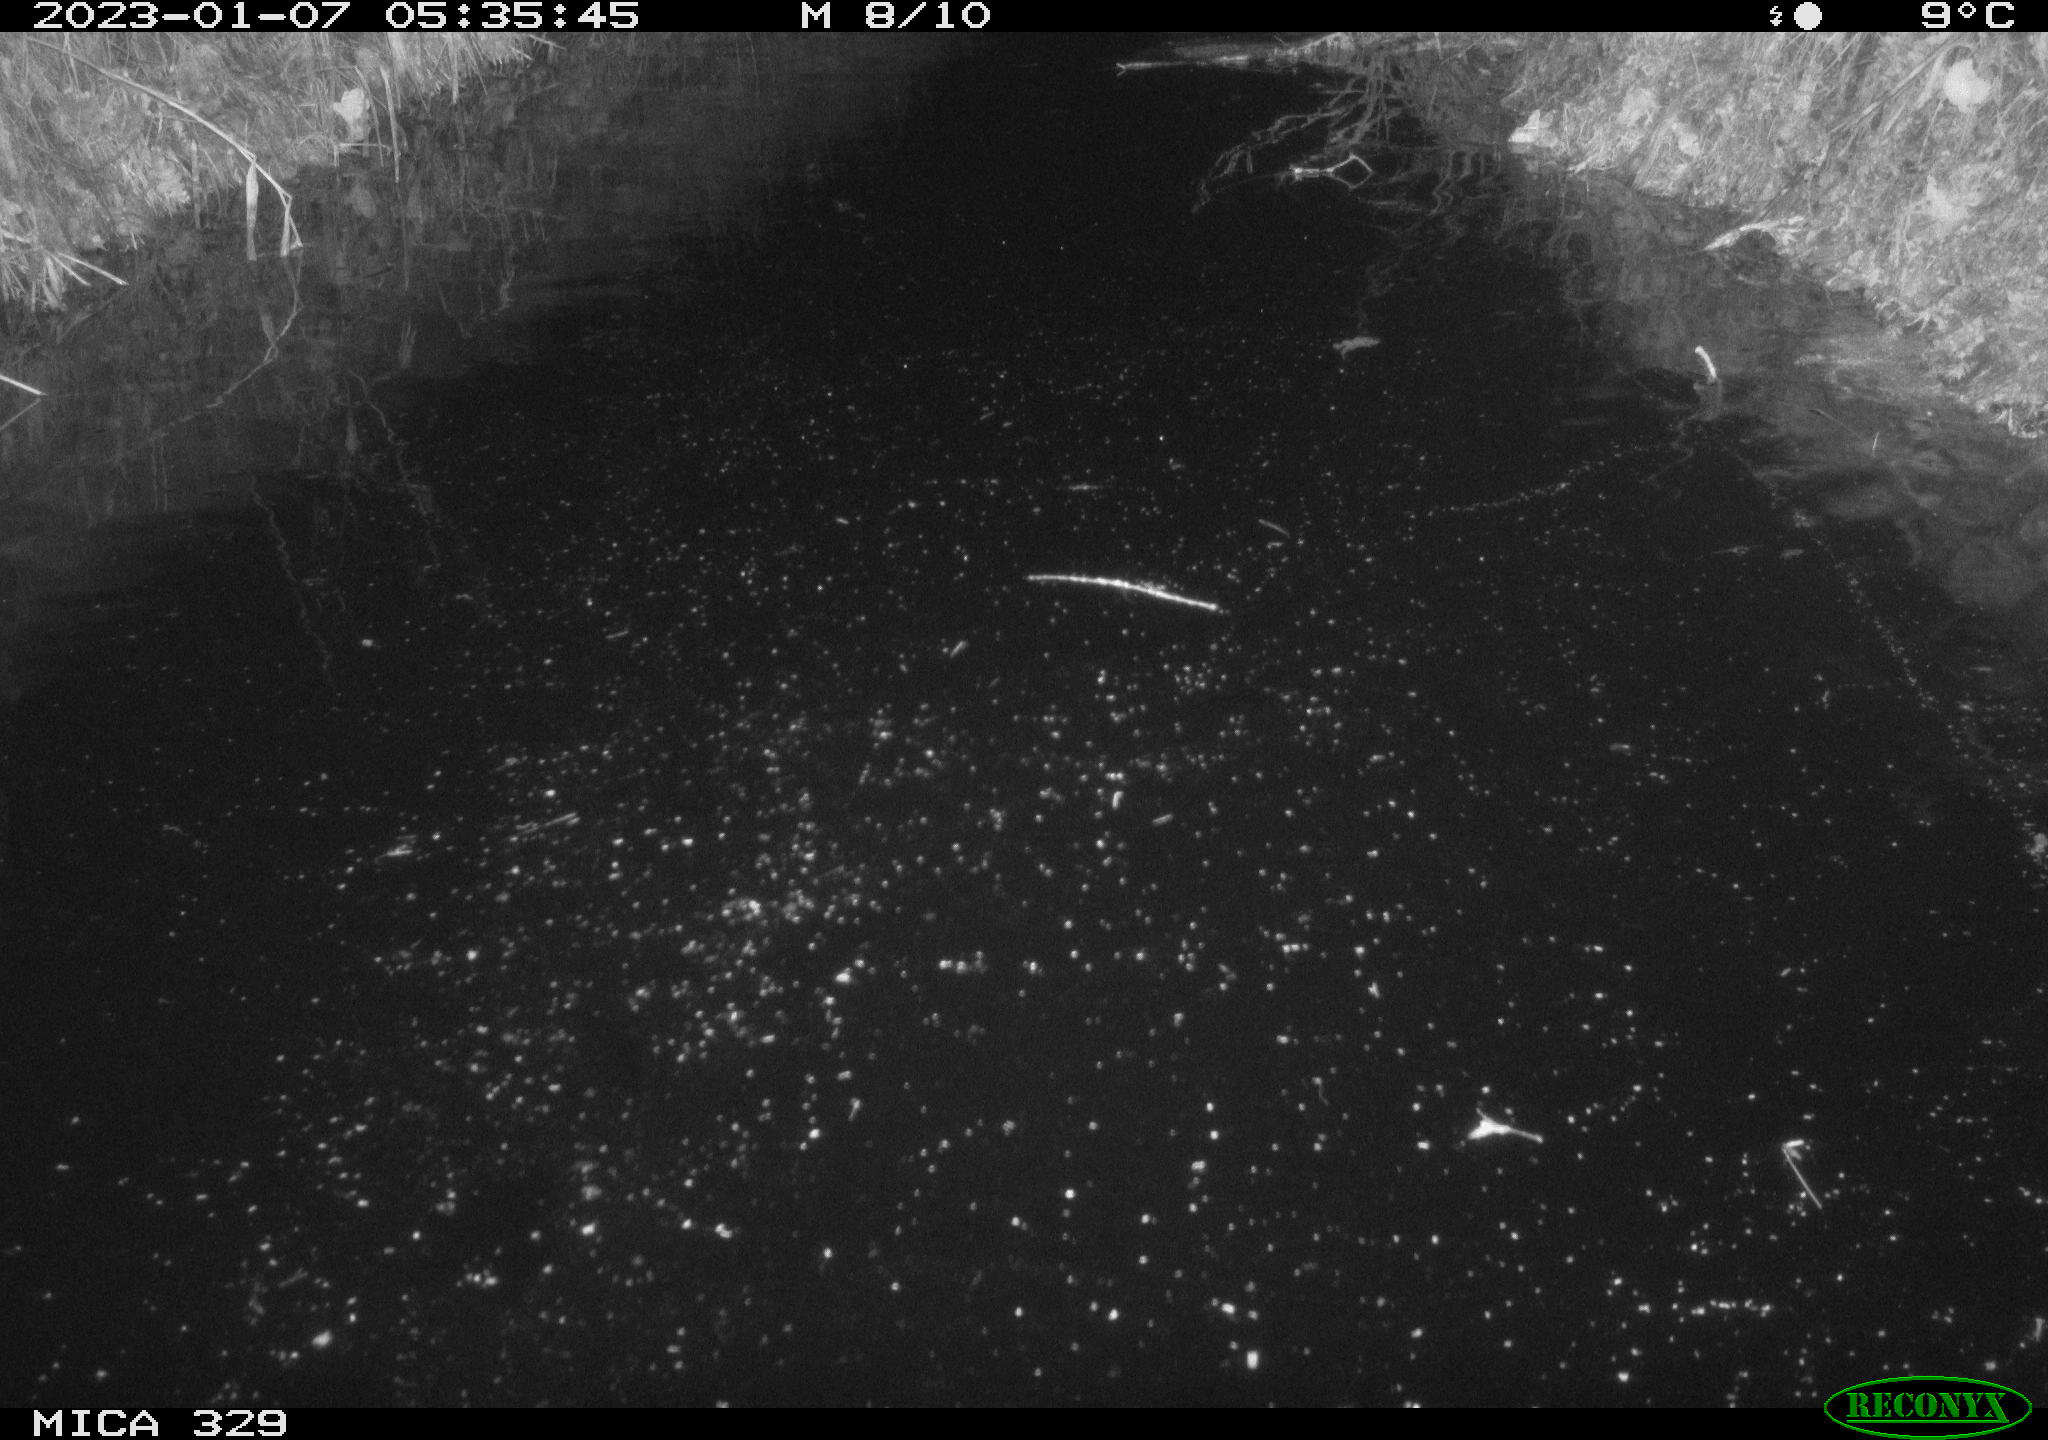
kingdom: Animalia
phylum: Chordata
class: Mammalia
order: Rodentia
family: Cricetidae
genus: Ondatra
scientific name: Ondatra zibethicus
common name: Muskrat
